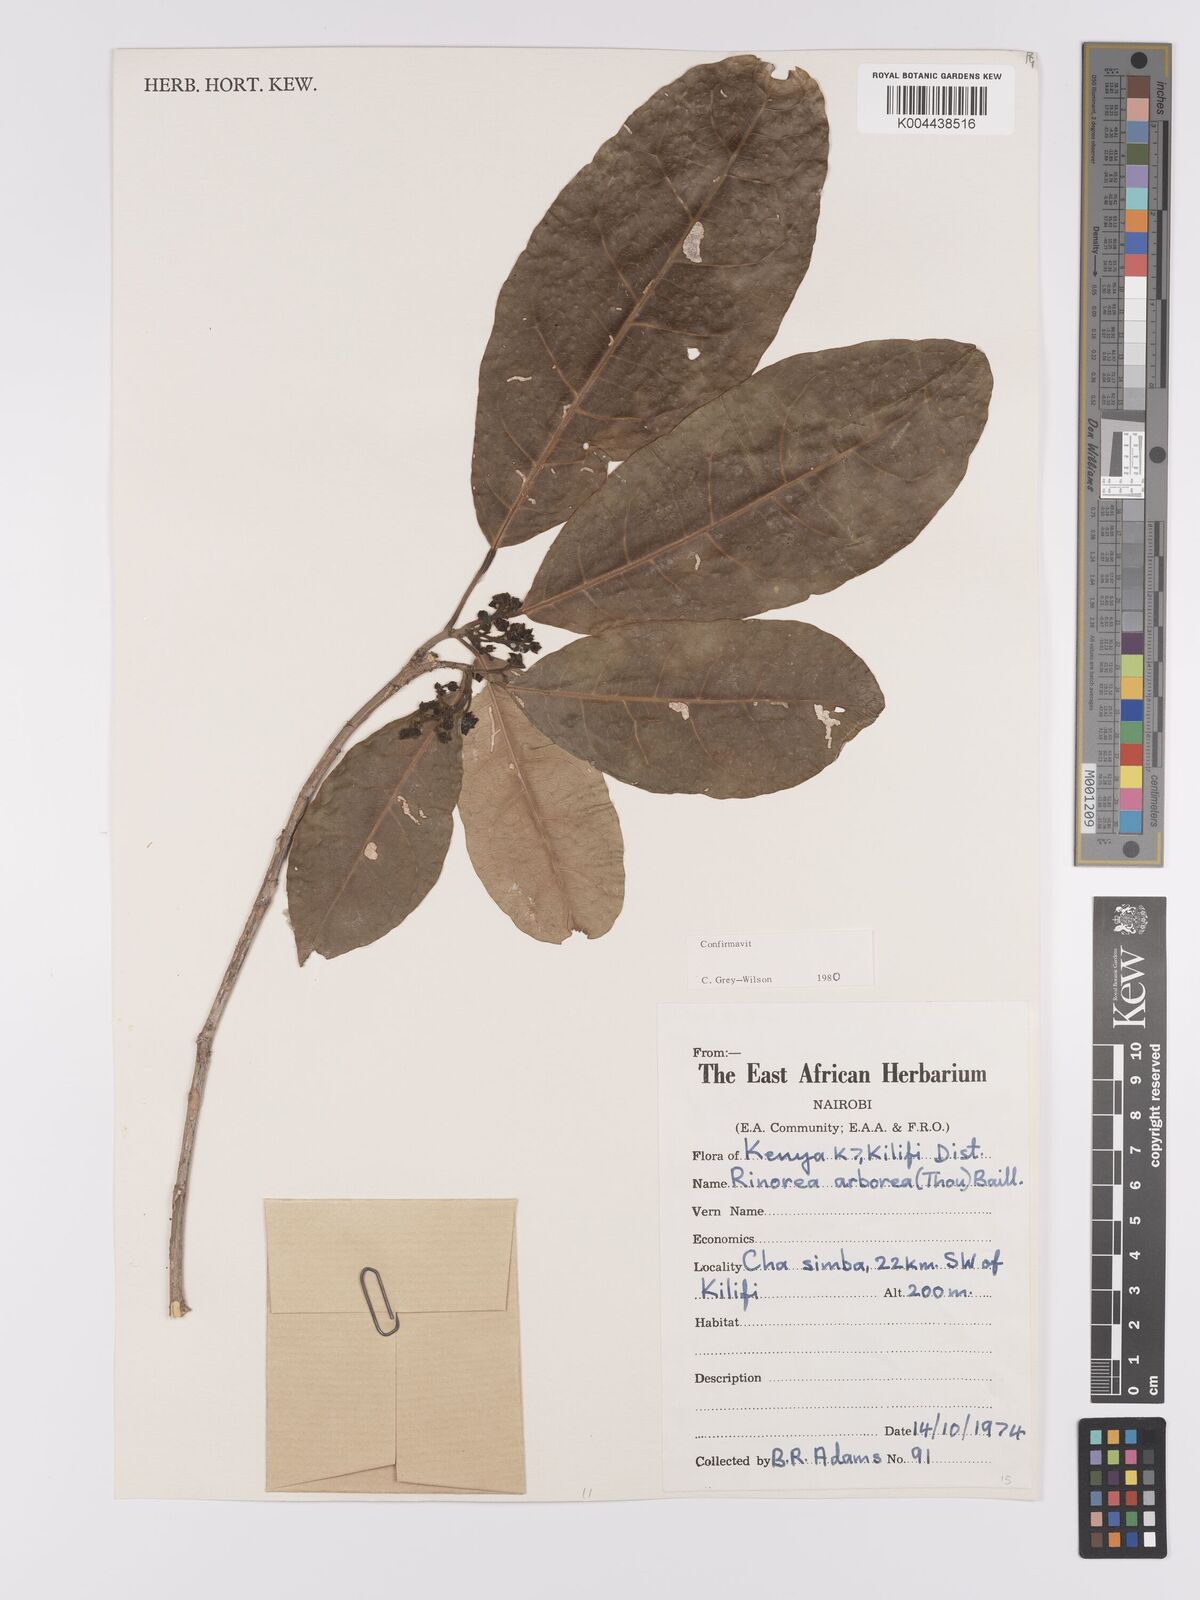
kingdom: Plantae
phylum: Tracheophyta
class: Magnoliopsida
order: Malpighiales
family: Violaceae
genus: Rinorea
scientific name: Rinorea arborea
